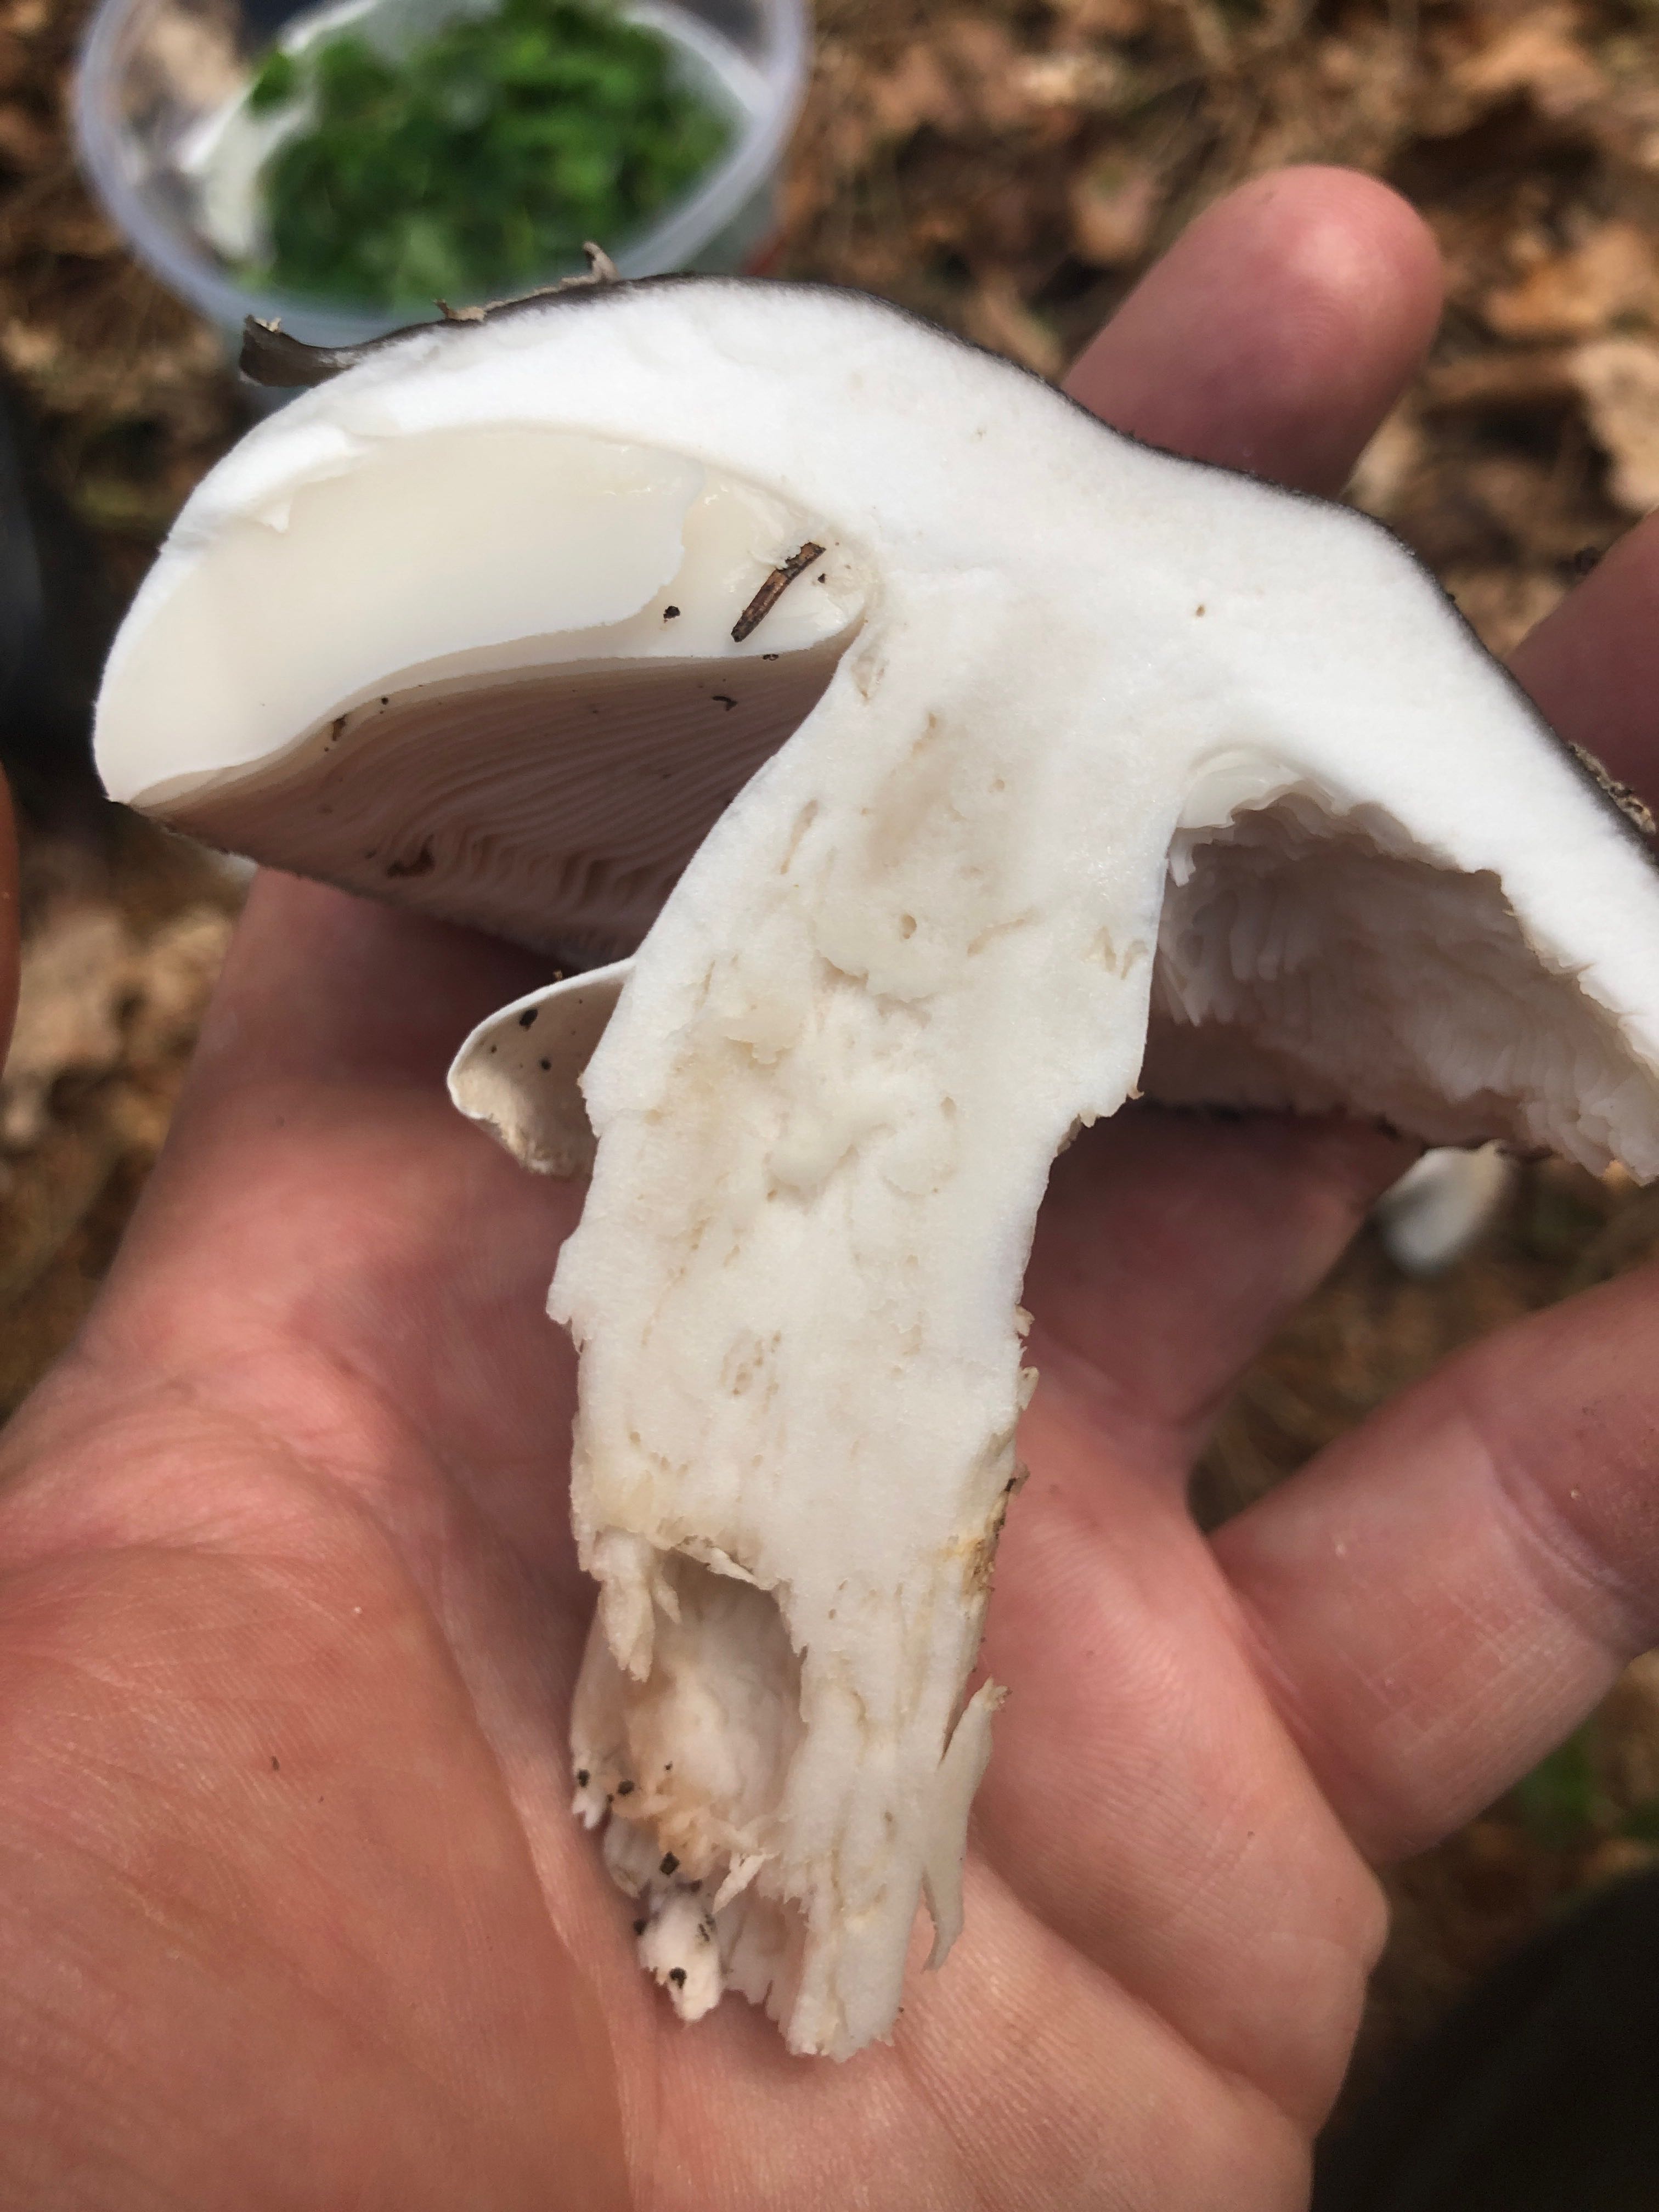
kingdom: Fungi
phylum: Basidiomycota
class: Agaricomycetes
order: Agaricales
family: Amanitaceae
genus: Amanita
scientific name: Amanita
